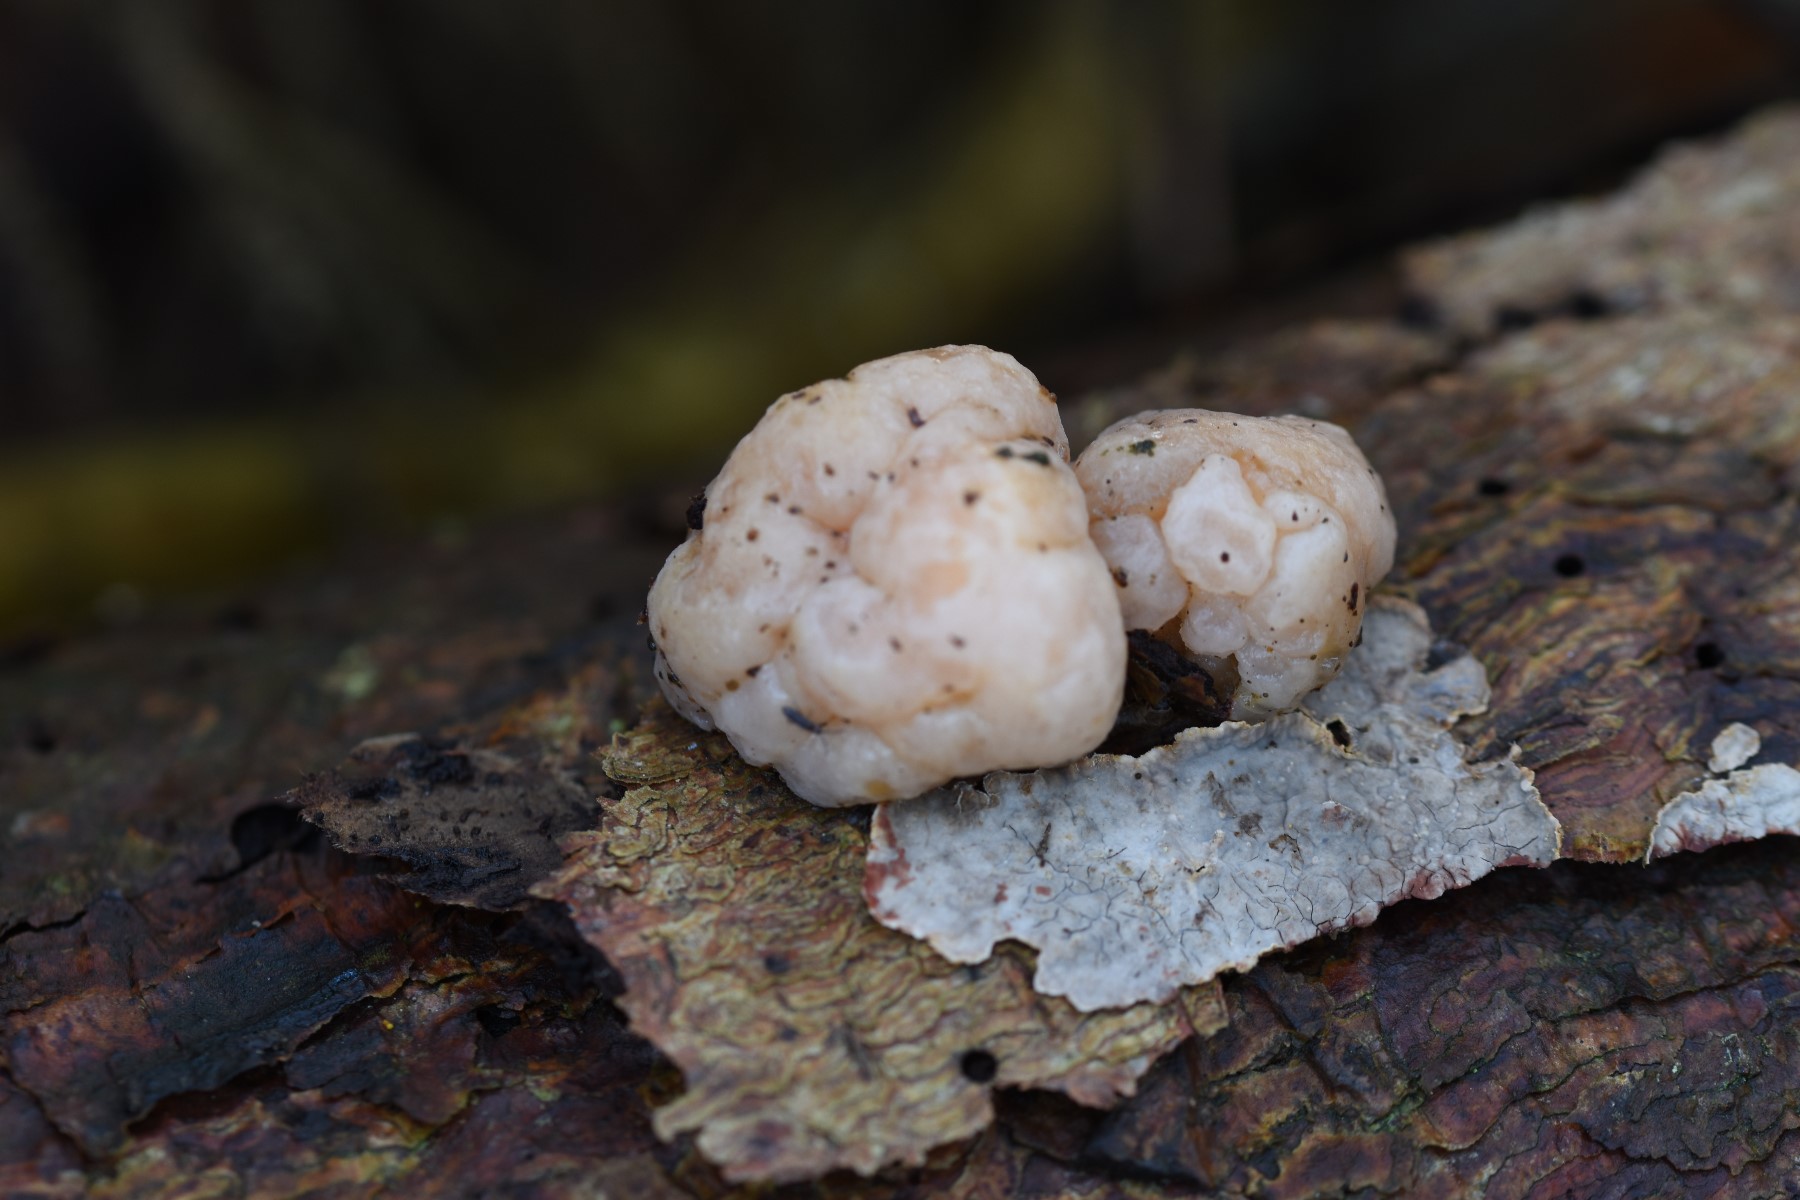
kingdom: Fungi
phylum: Basidiomycota
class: Tremellomycetes
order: Tremellales
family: Naemateliaceae
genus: Naematelia
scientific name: Naematelia encephala
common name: fyrre-bævresvamp
